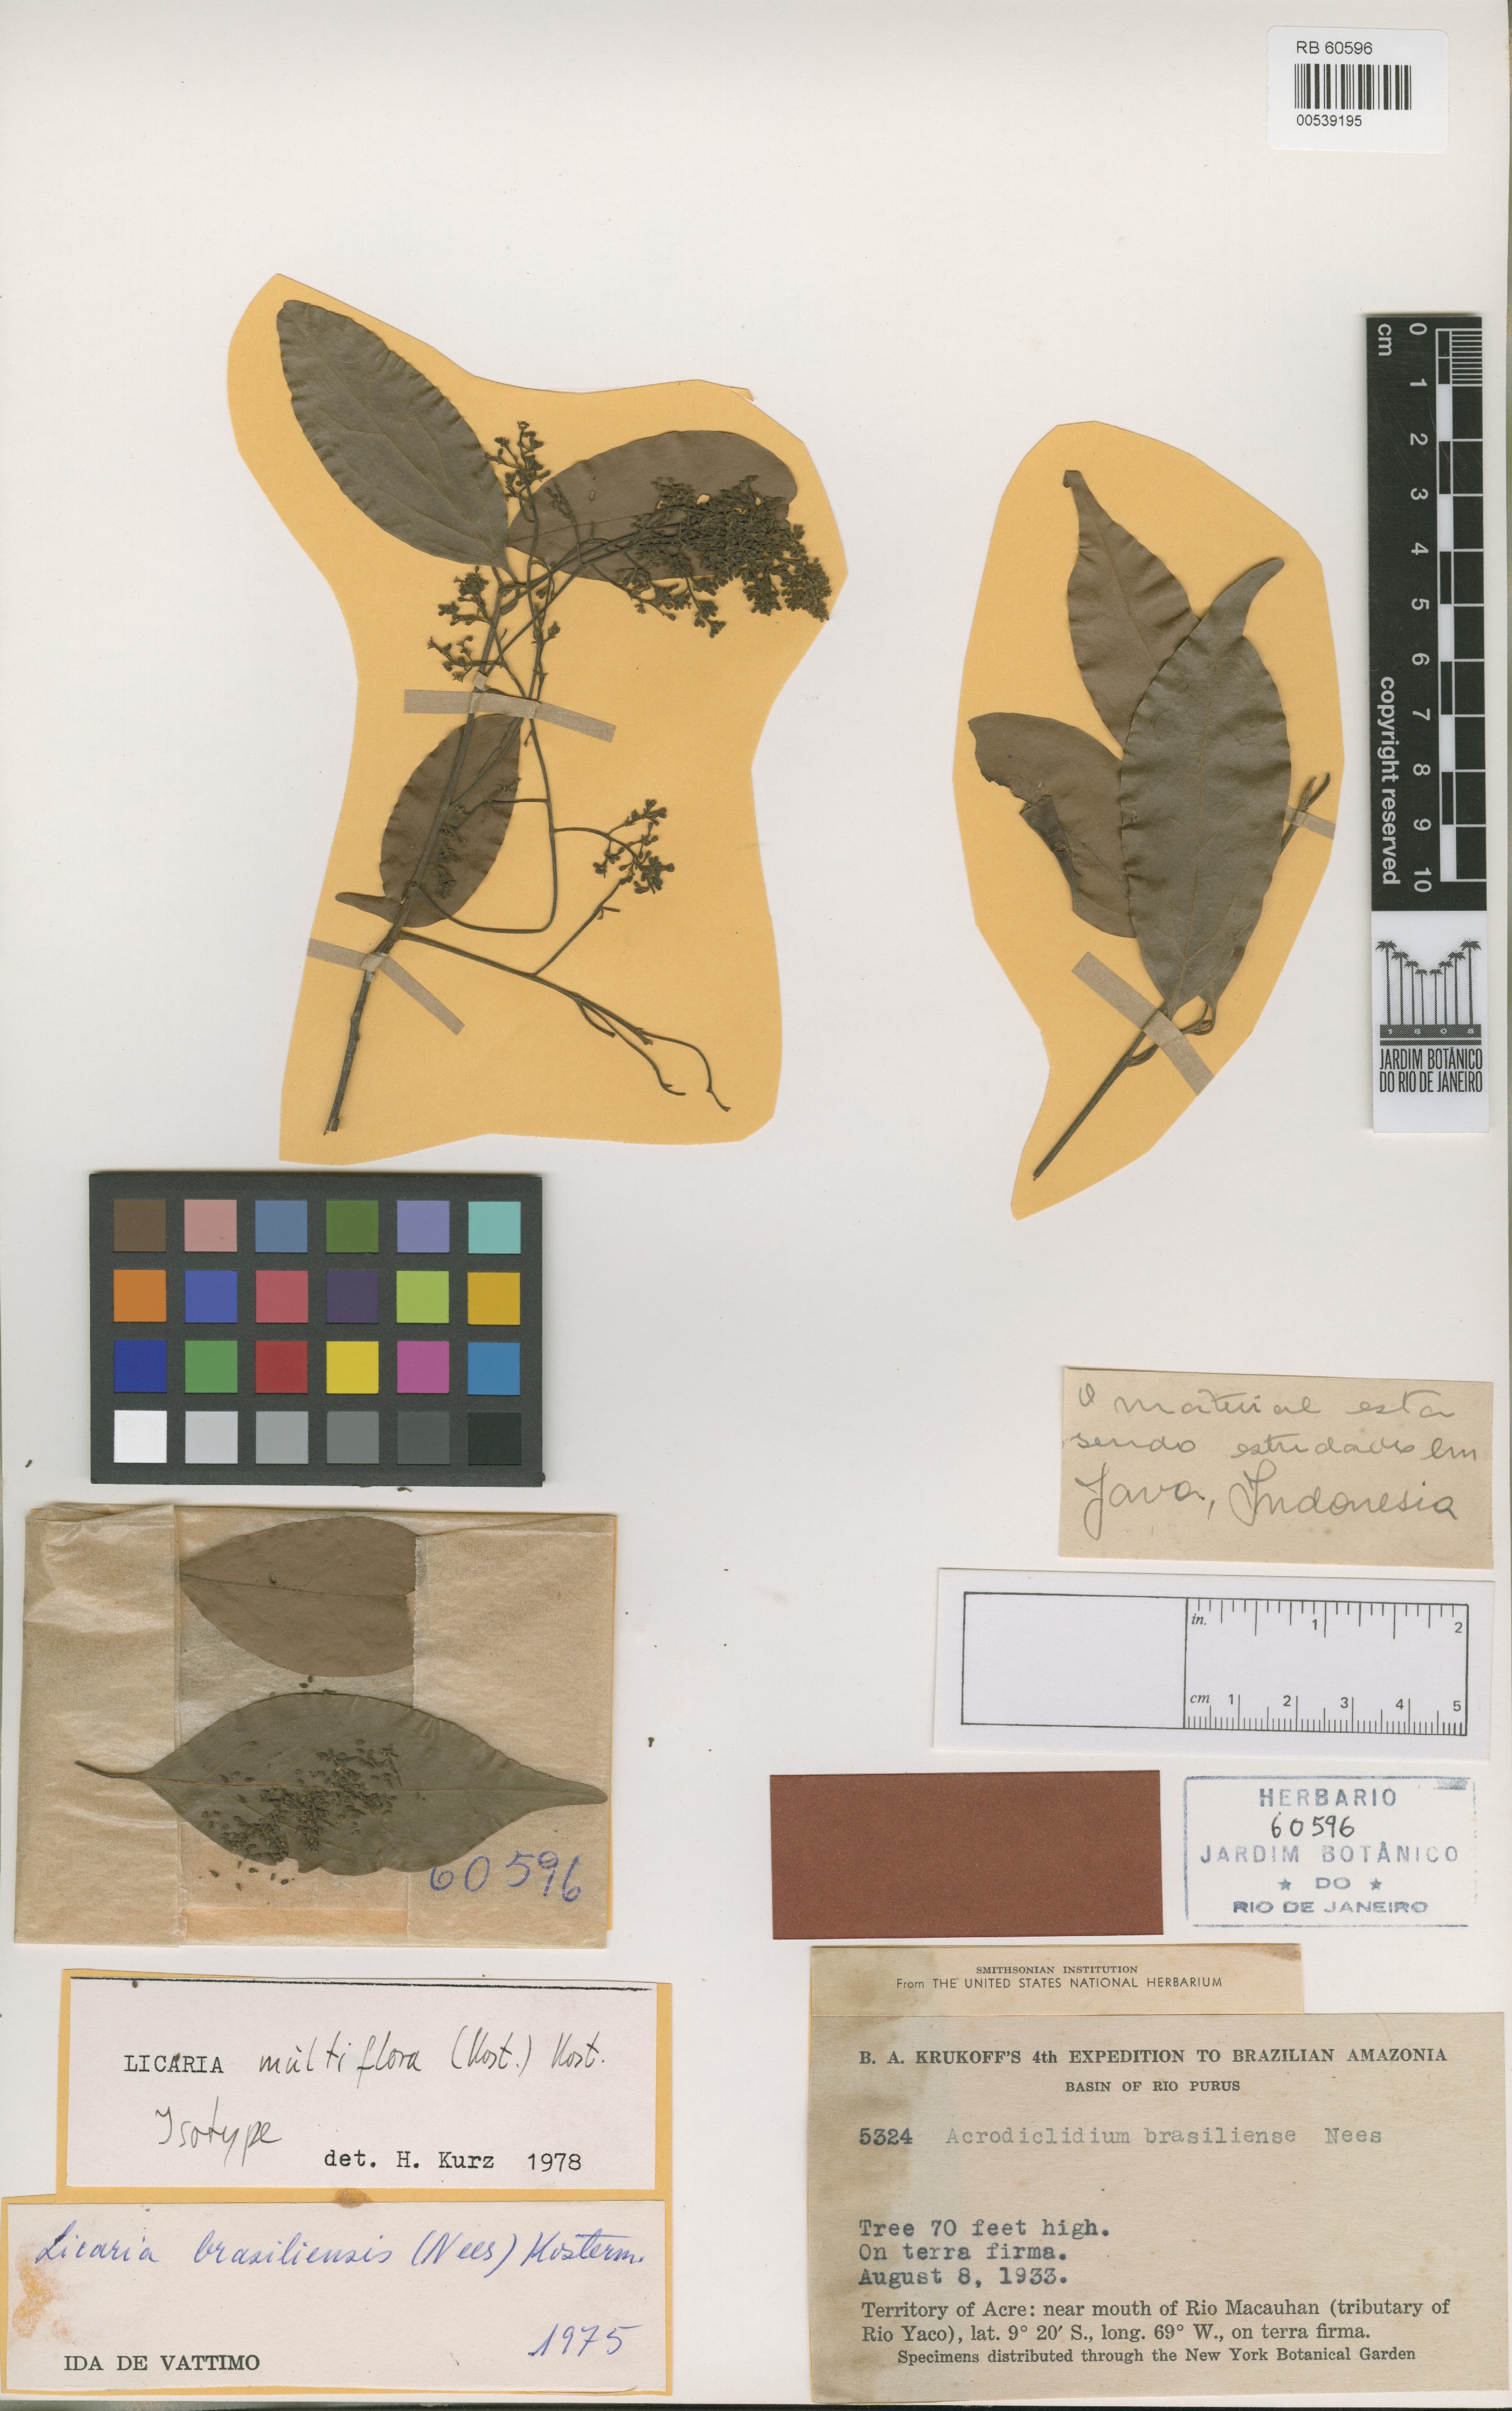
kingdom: Plantae
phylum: Tracheophyta
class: Magnoliopsida
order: Laurales
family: Lauraceae
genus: Licaria
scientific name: Licaria multiflora
